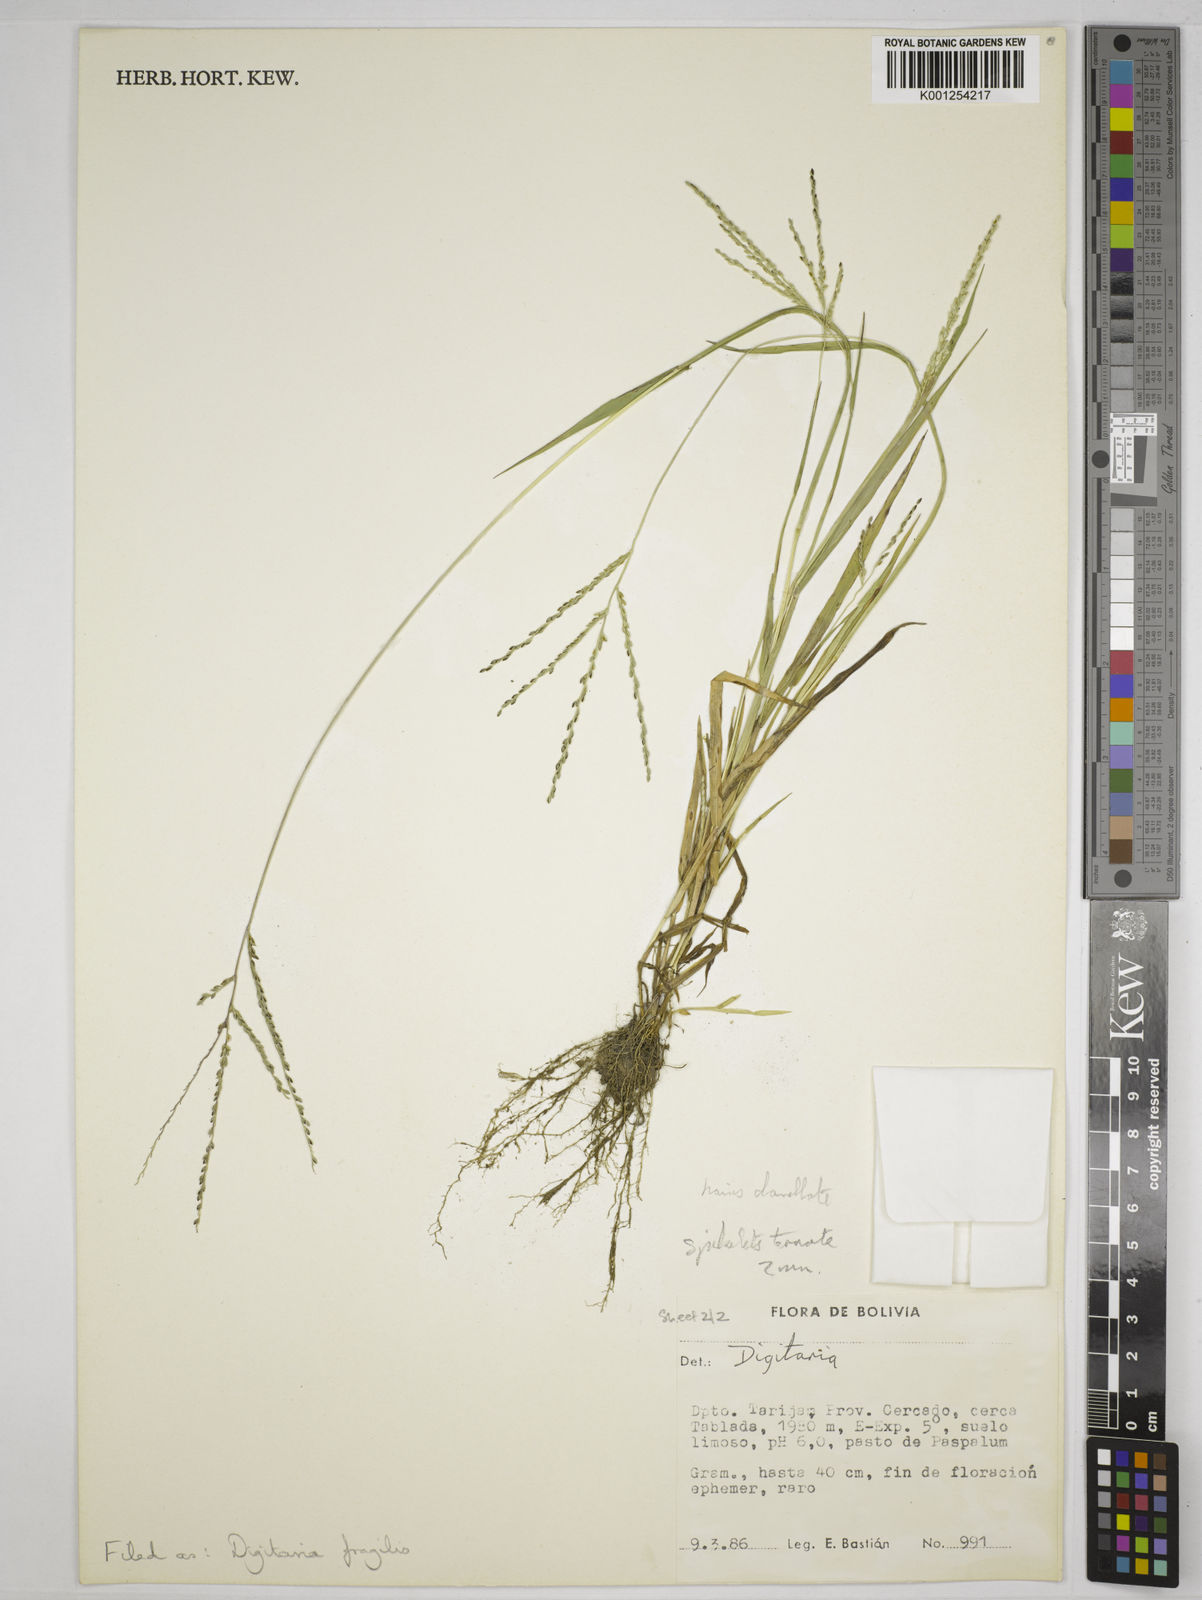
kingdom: Plantae
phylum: Tracheophyta
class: Liliopsida
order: Poales
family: Poaceae
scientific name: Poaceae
